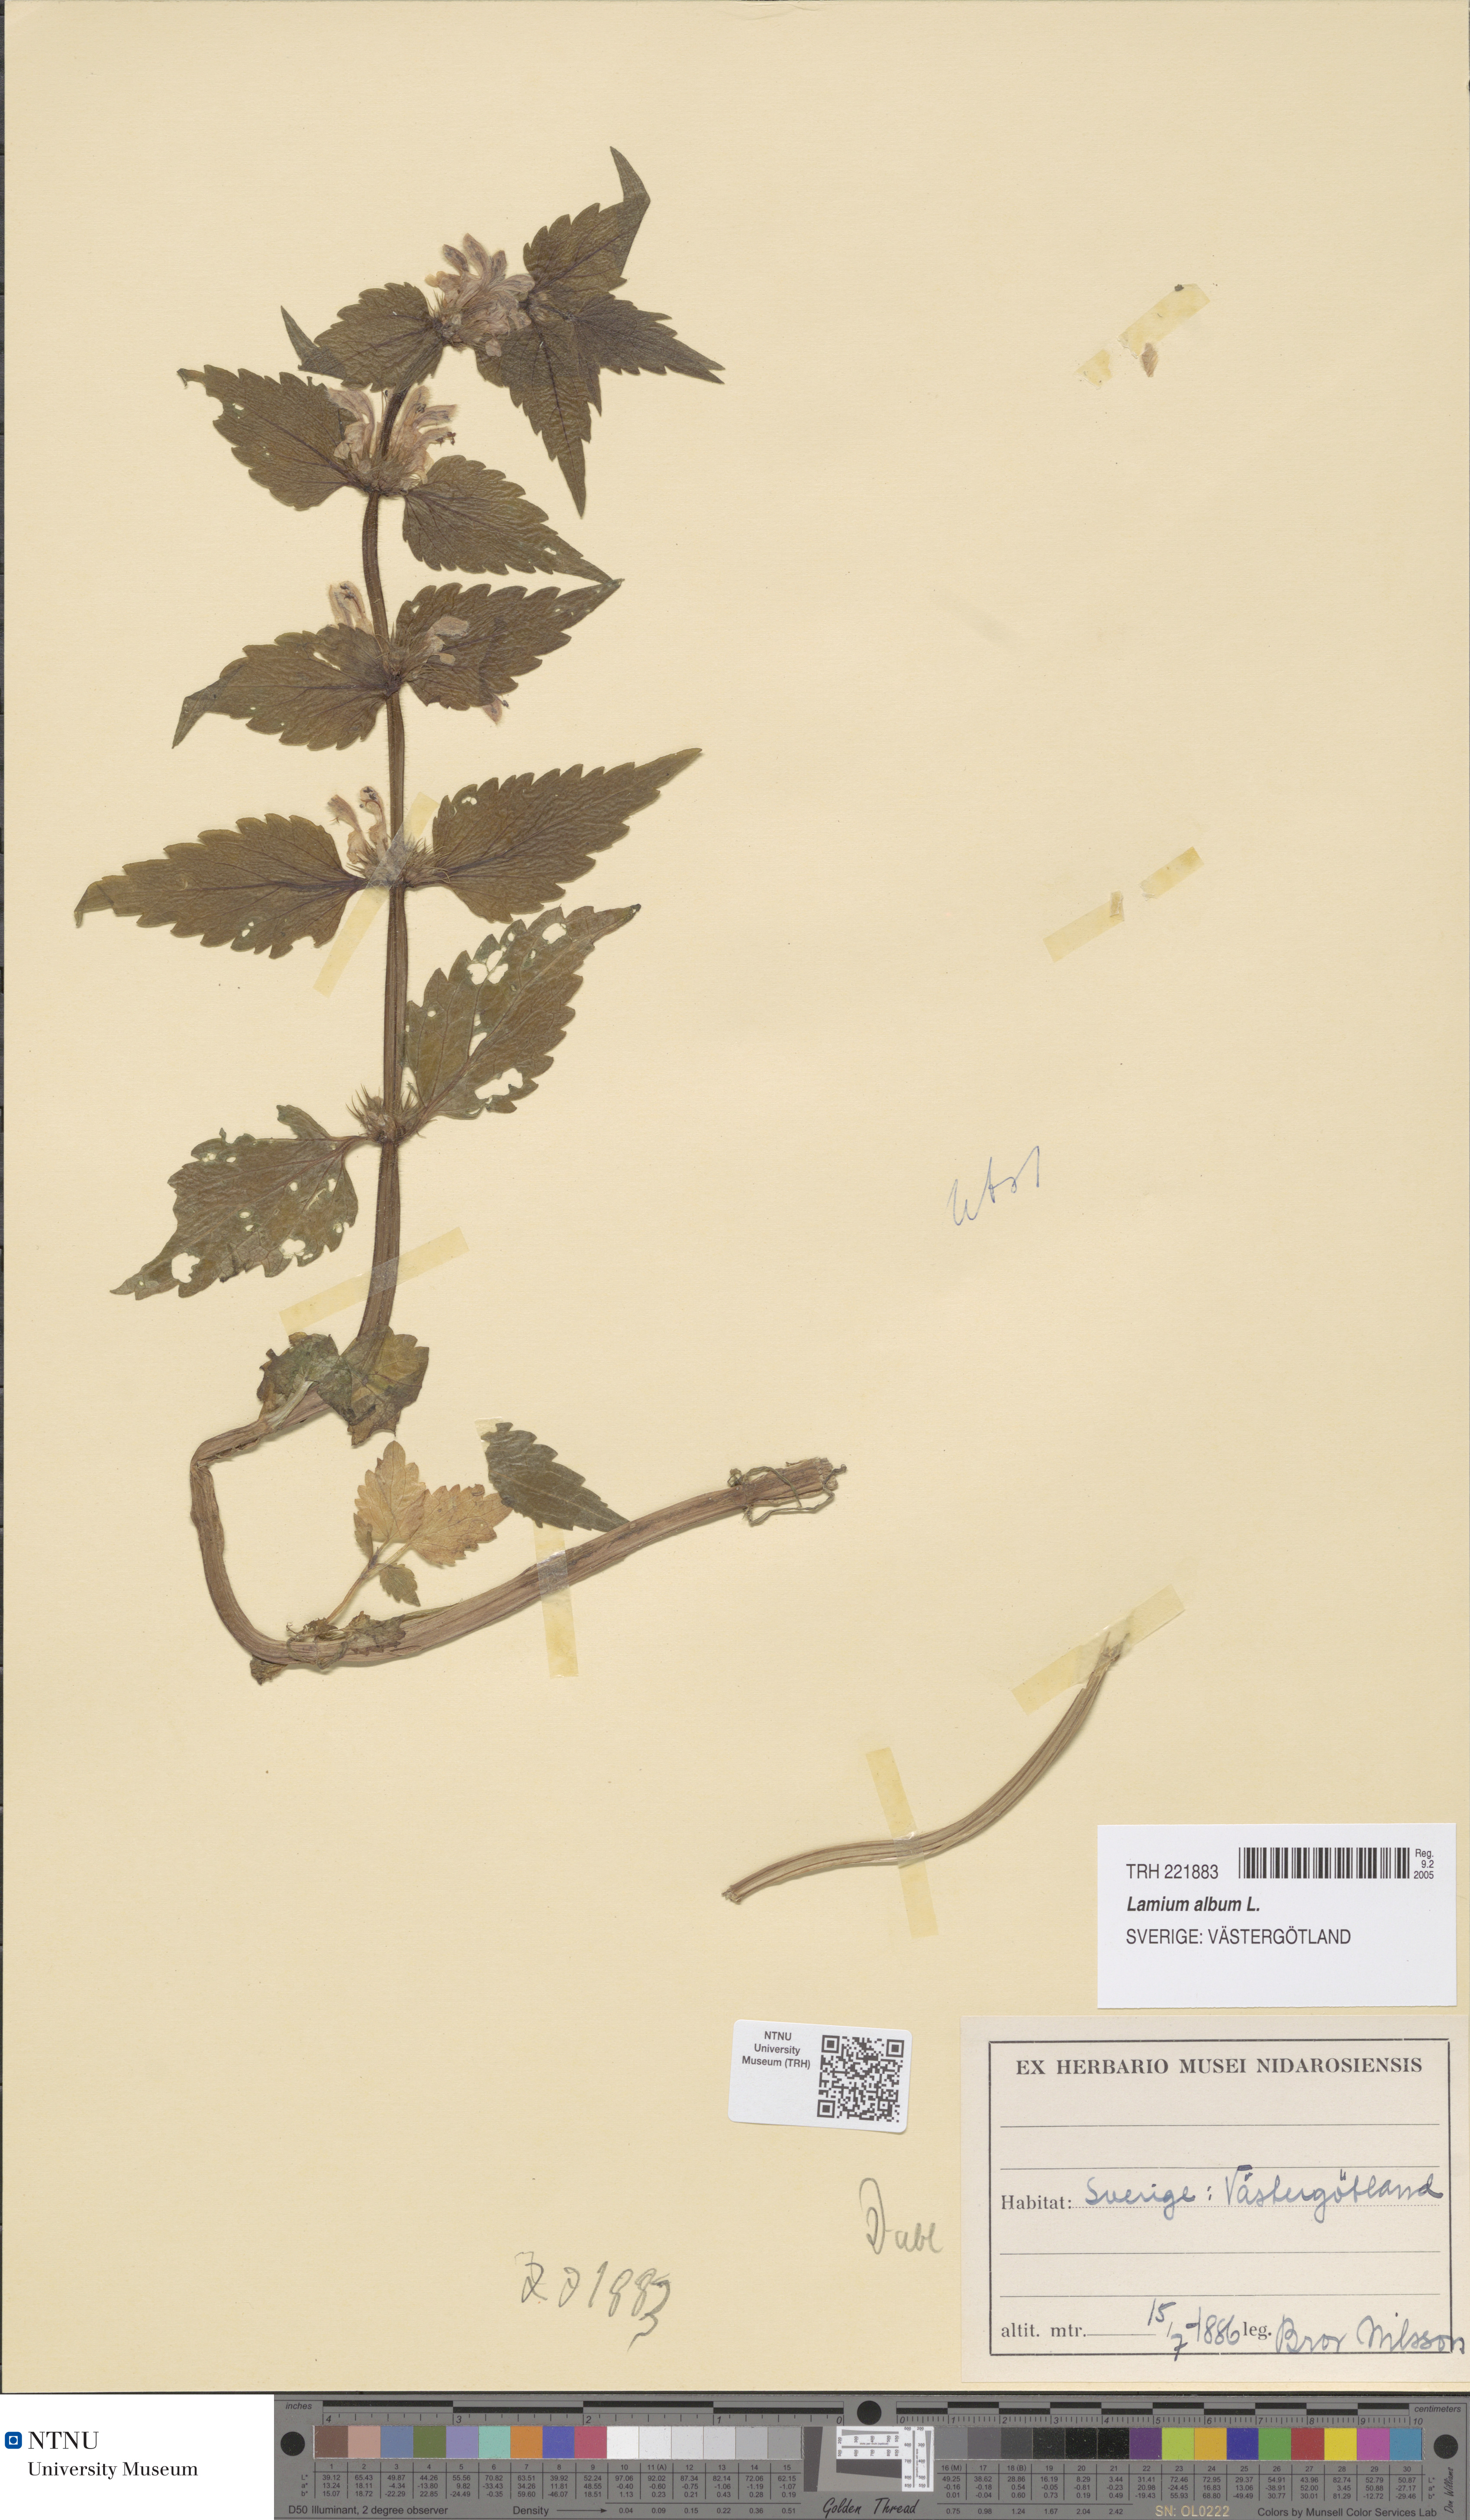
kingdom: Plantae
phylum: Tracheophyta
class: Magnoliopsida
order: Lamiales
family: Lamiaceae
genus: Lamium
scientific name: Lamium album
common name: White dead-nettle
